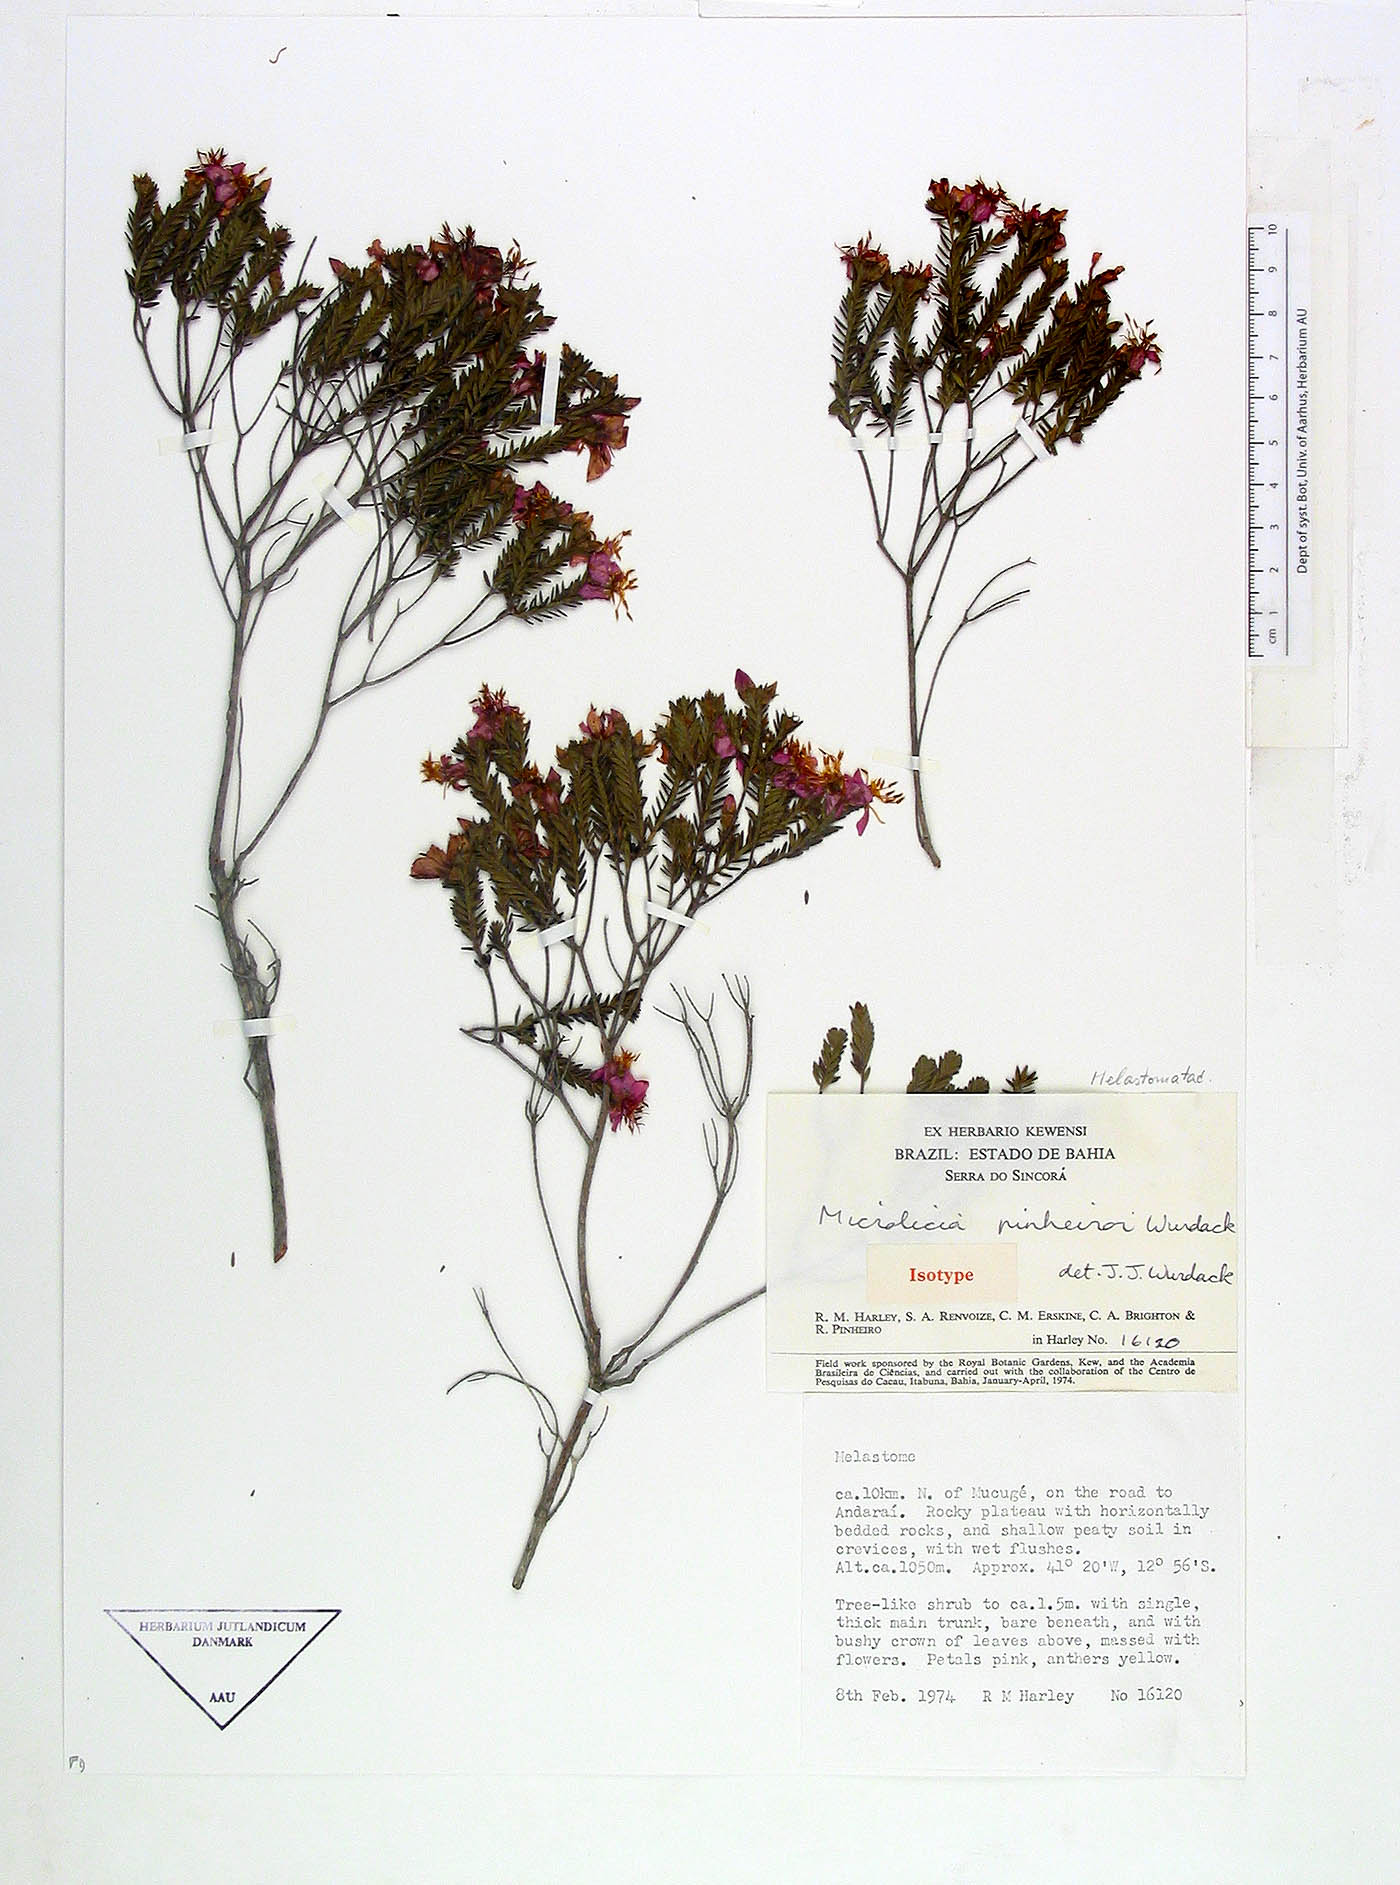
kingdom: Plantae
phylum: Tracheophyta
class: Magnoliopsida
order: Myrtales
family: Melastomataceae
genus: Microlicia
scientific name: Microlicia pinheiroi
